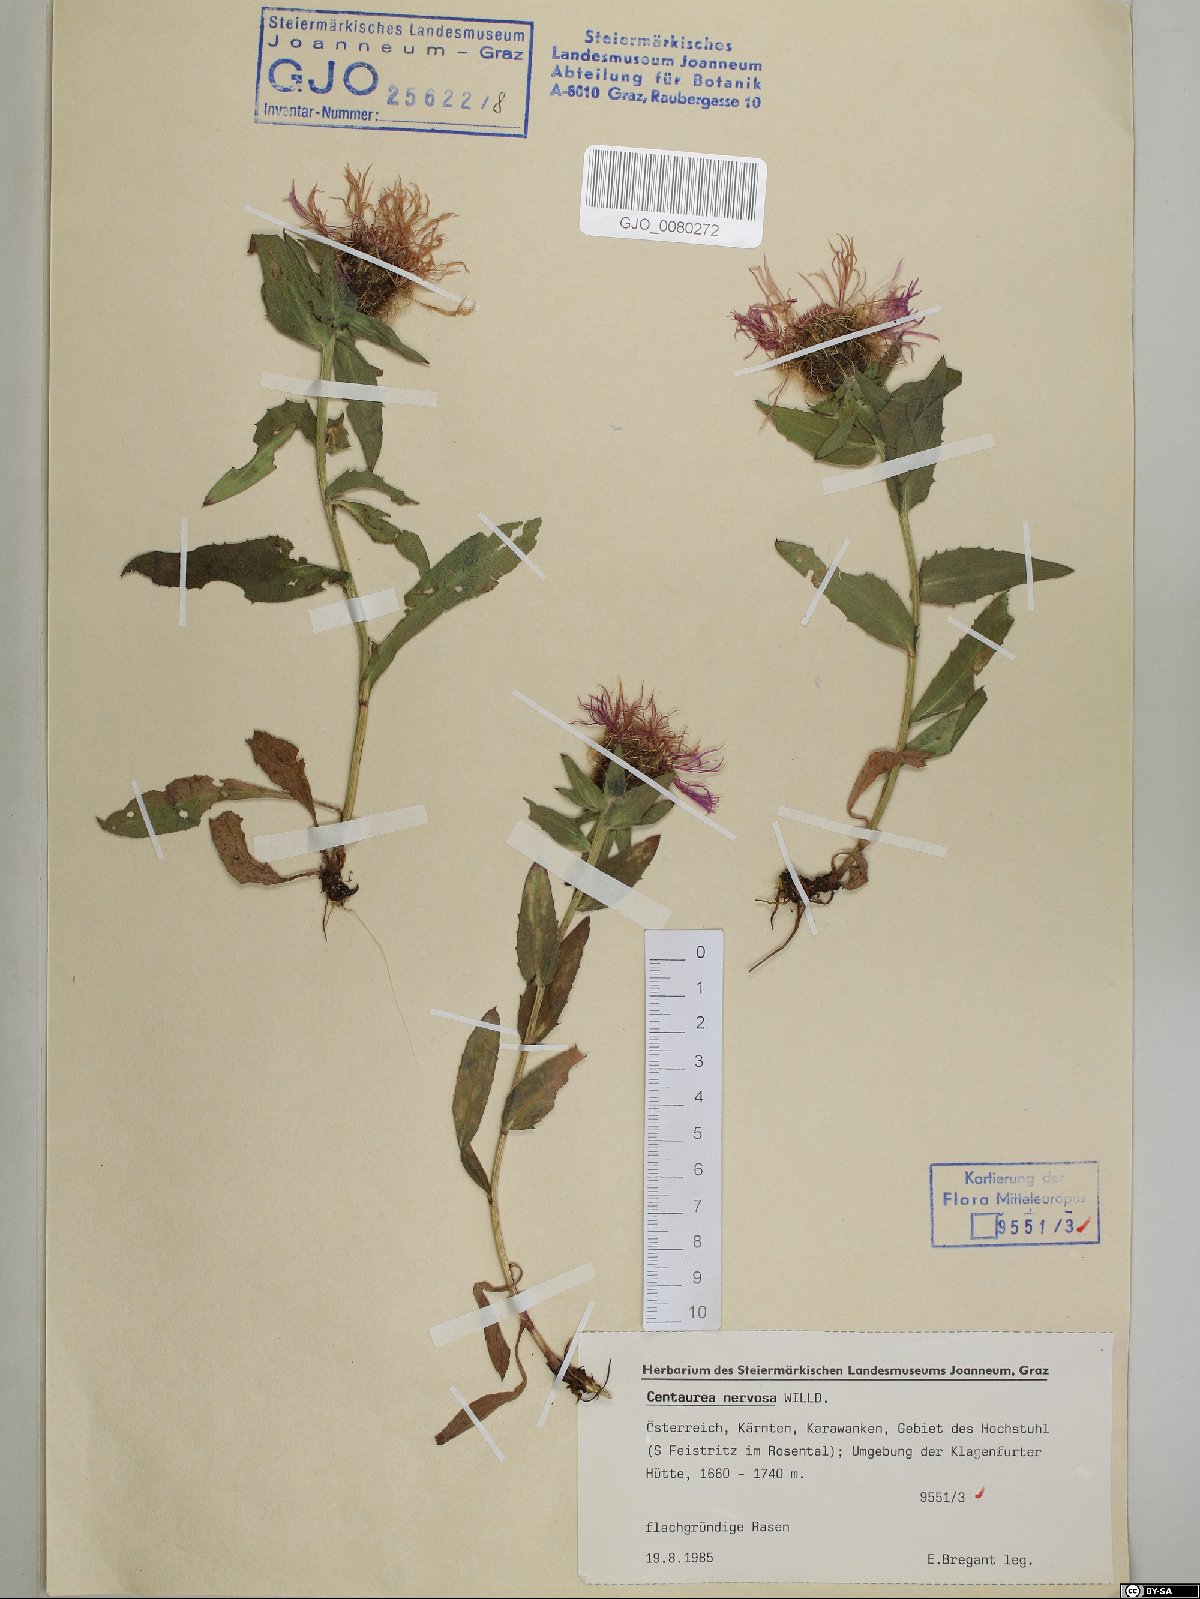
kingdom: Plantae
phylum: Tracheophyta
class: Magnoliopsida
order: Asterales
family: Asteraceae
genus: Centaurea
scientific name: Centaurea nervosa
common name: Singleflower knapweed
